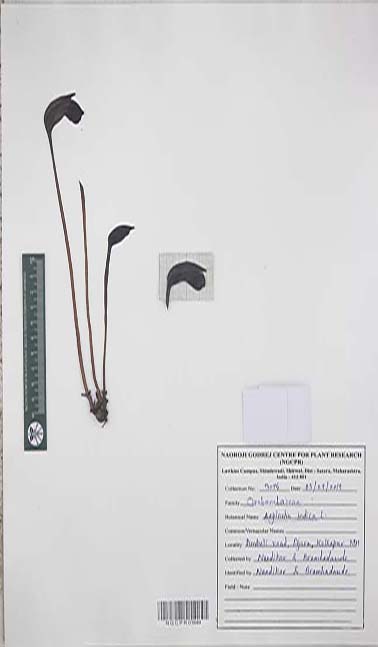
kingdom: Plantae
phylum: Tracheophyta
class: Magnoliopsida
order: Lamiales
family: Orobanchaceae
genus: Aeginetia
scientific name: Aeginetia indica
